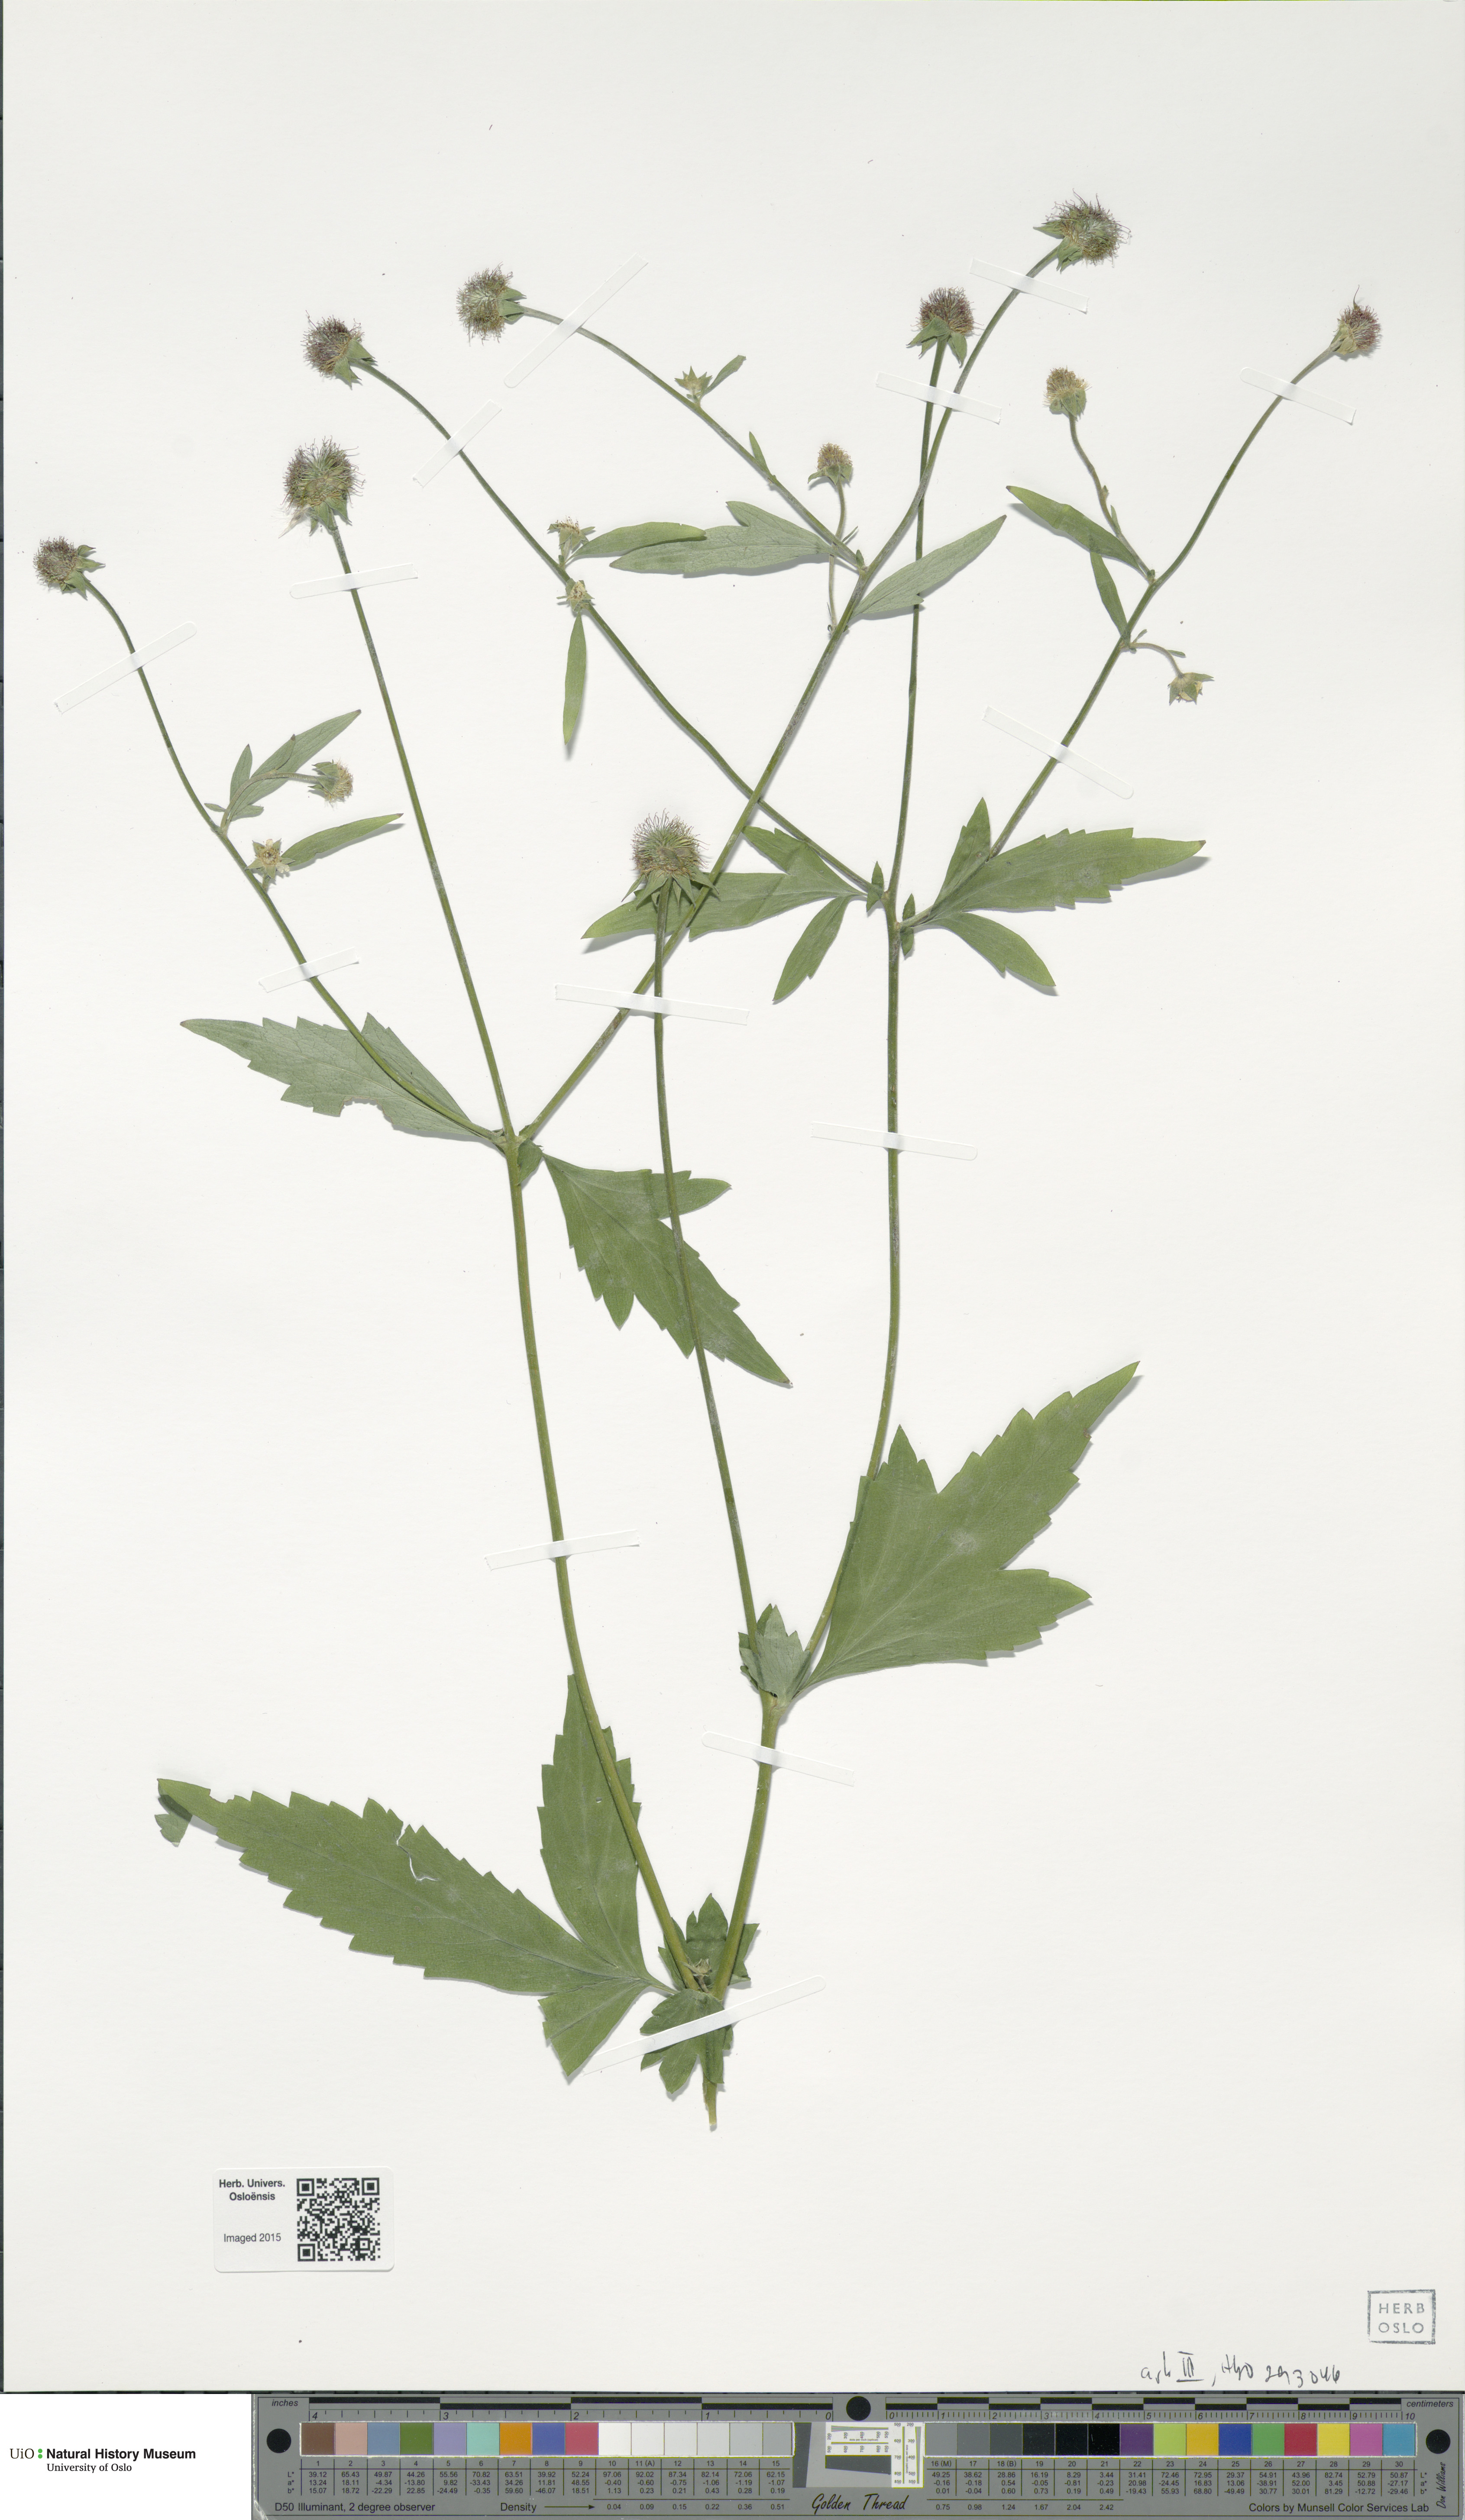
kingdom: Plantae
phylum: Tracheophyta
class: Magnoliopsida
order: Rosales
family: Rosaceae
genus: Geum
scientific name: Geum
